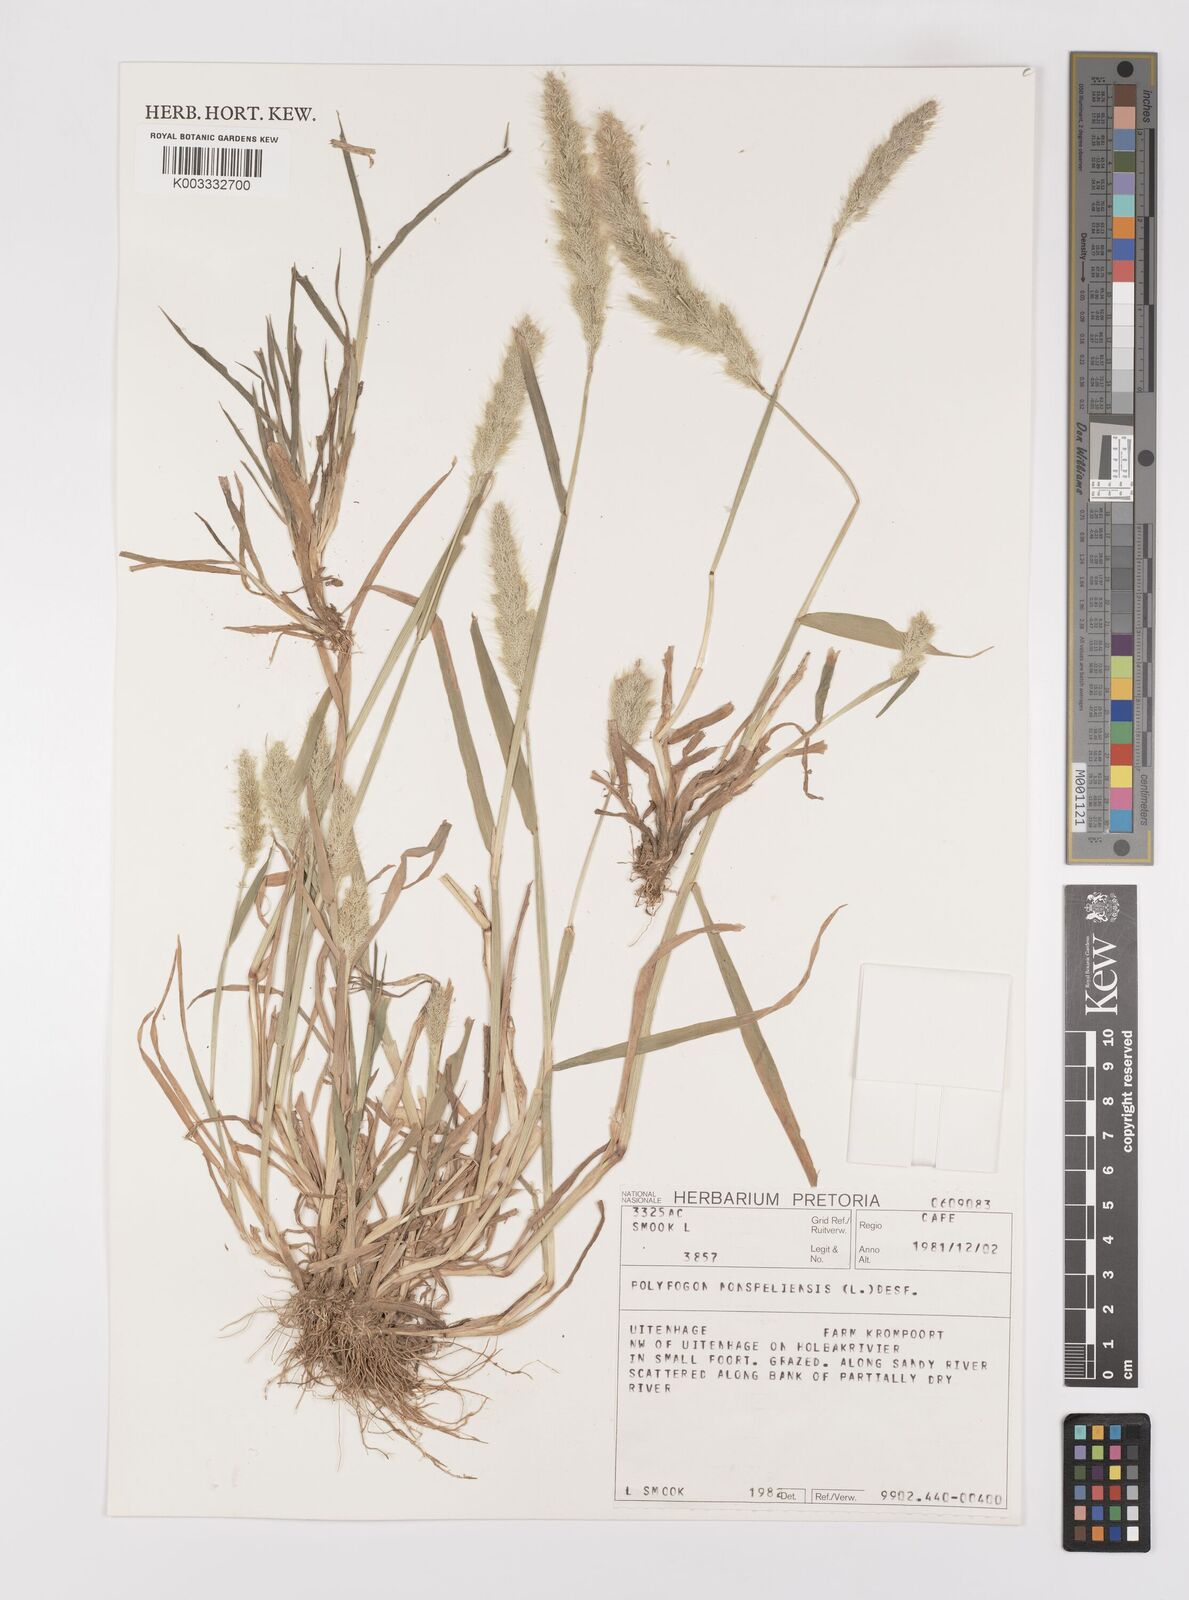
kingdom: Plantae
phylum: Tracheophyta
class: Liliopsida
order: Poales
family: Poaceae
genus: Polypogon
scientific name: Polypogon monspeliensis
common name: Annual rabbitsfoot grass
